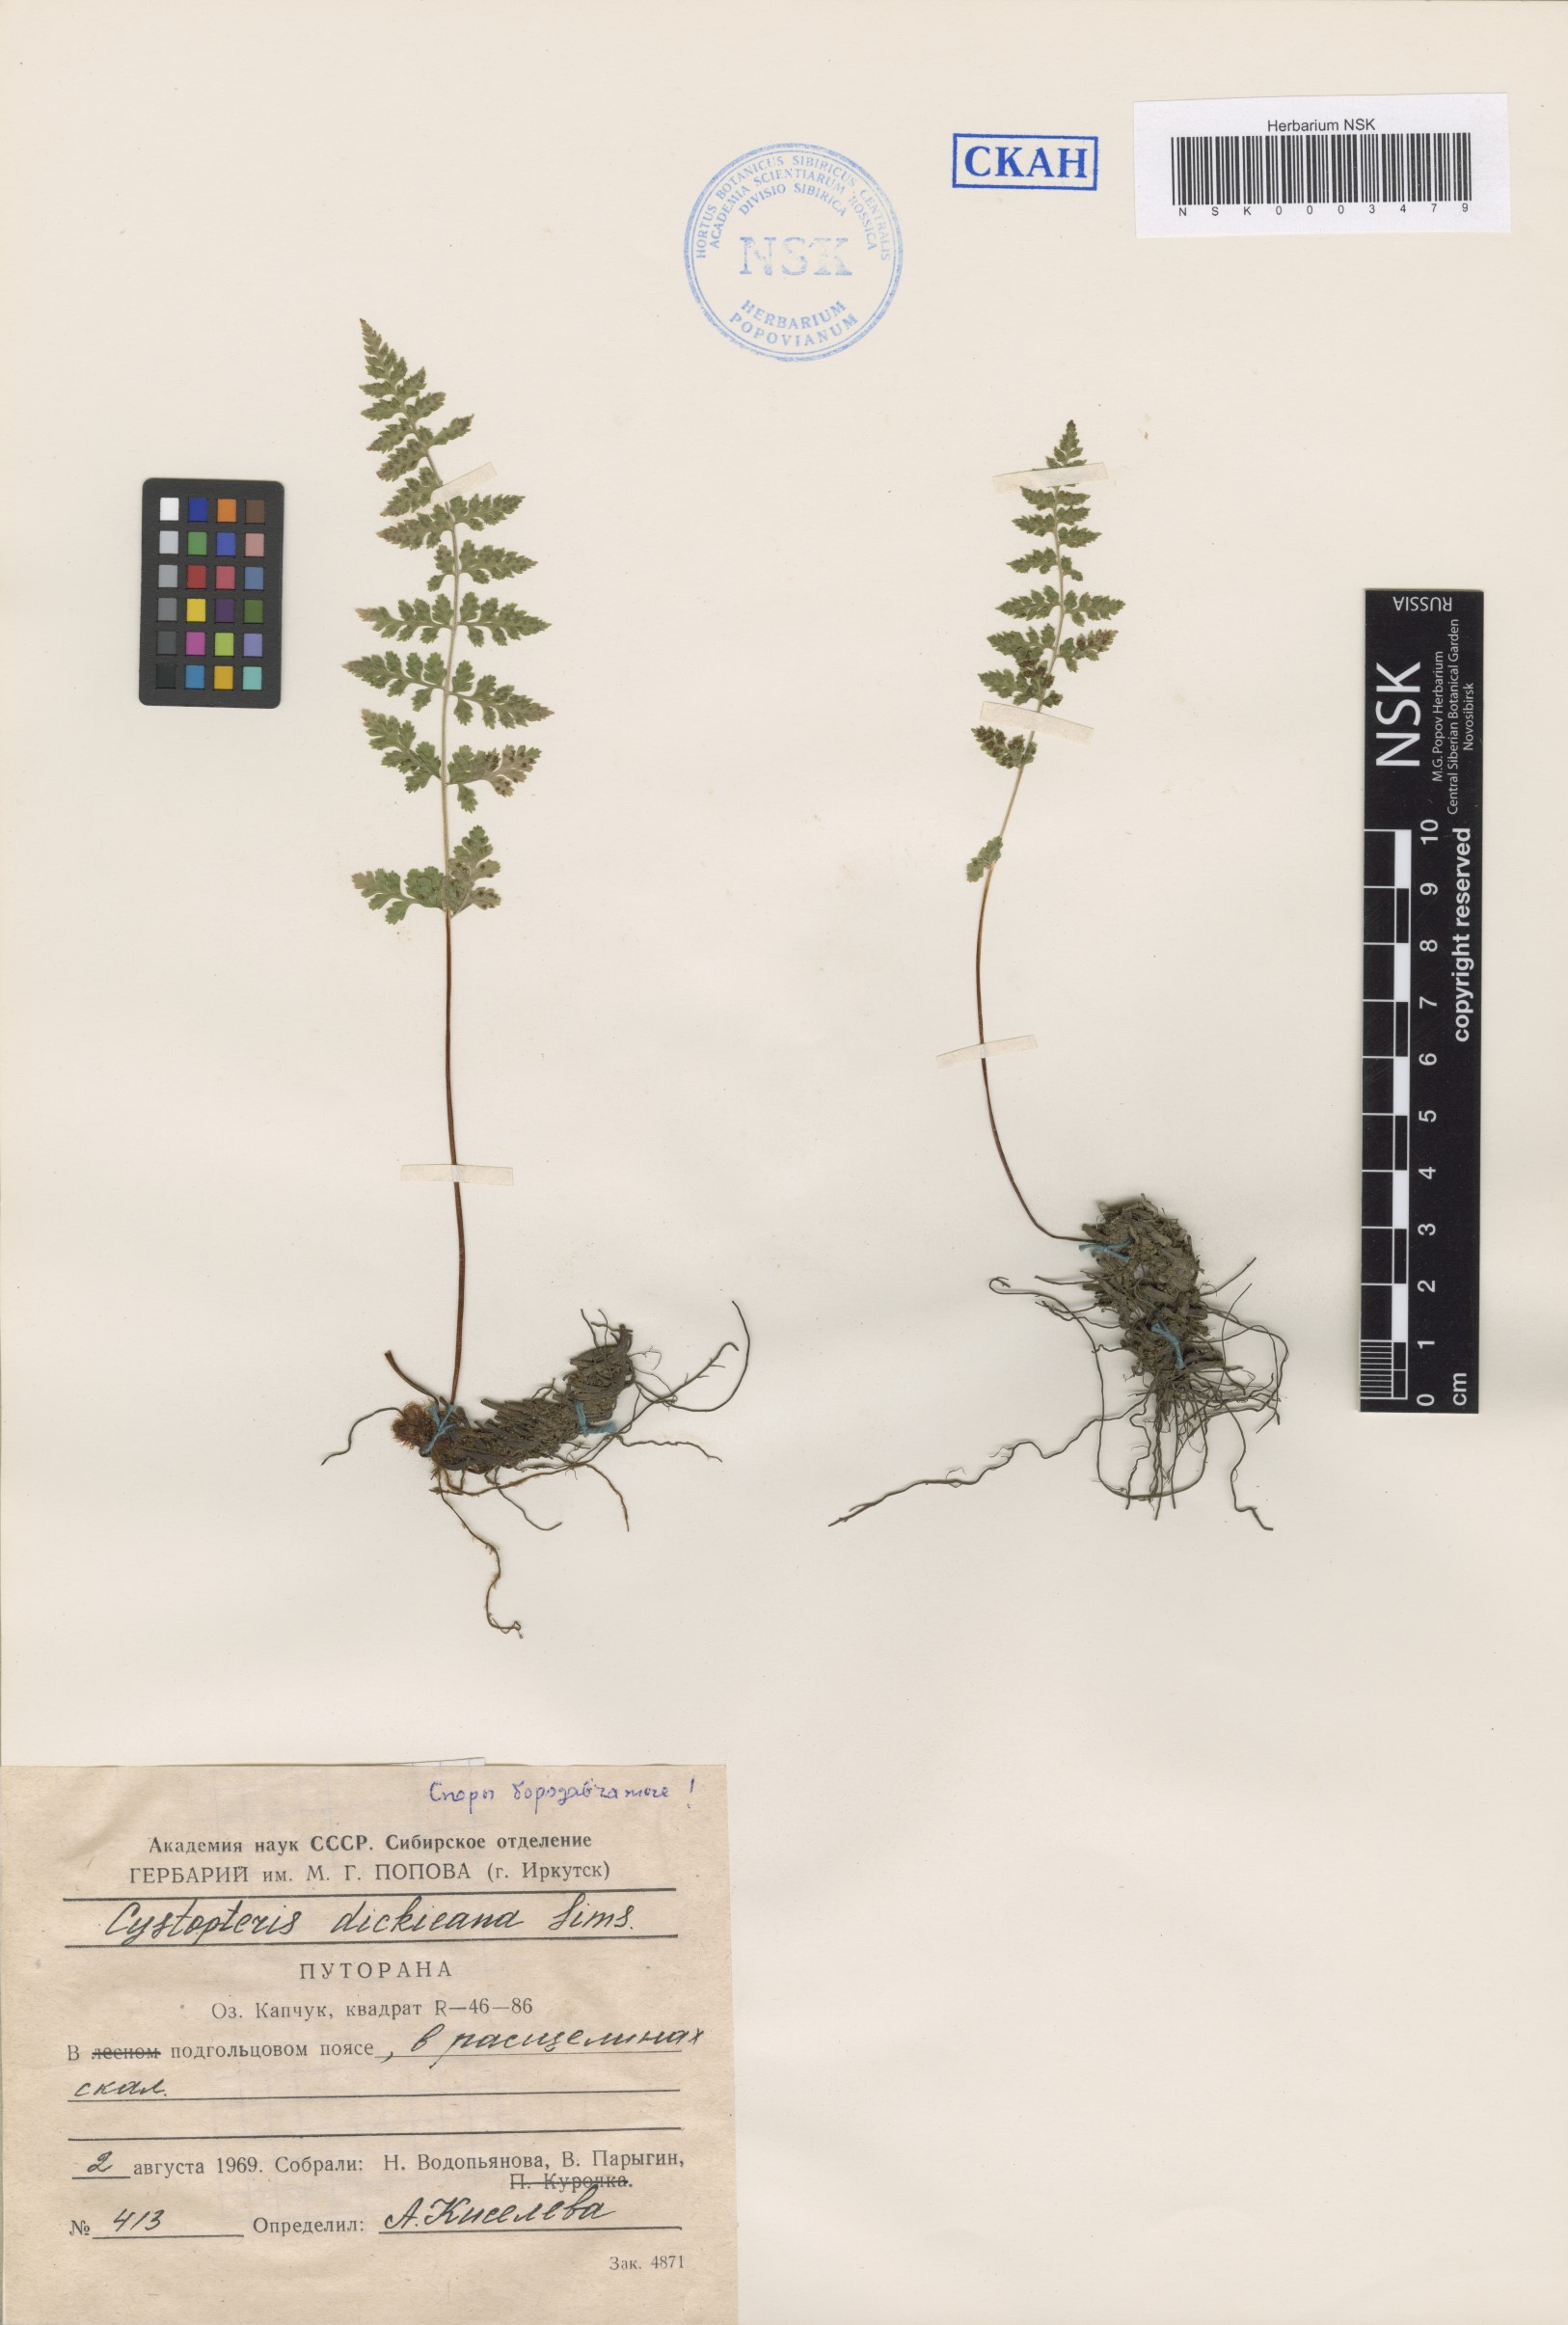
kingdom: Plantae
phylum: Tracheophyta
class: Polypodiopsida
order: Polypodiales
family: Cystopteridaceae
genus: Cystopteris
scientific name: Cystopteris dickieana
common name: Dickie's bladder-fern
